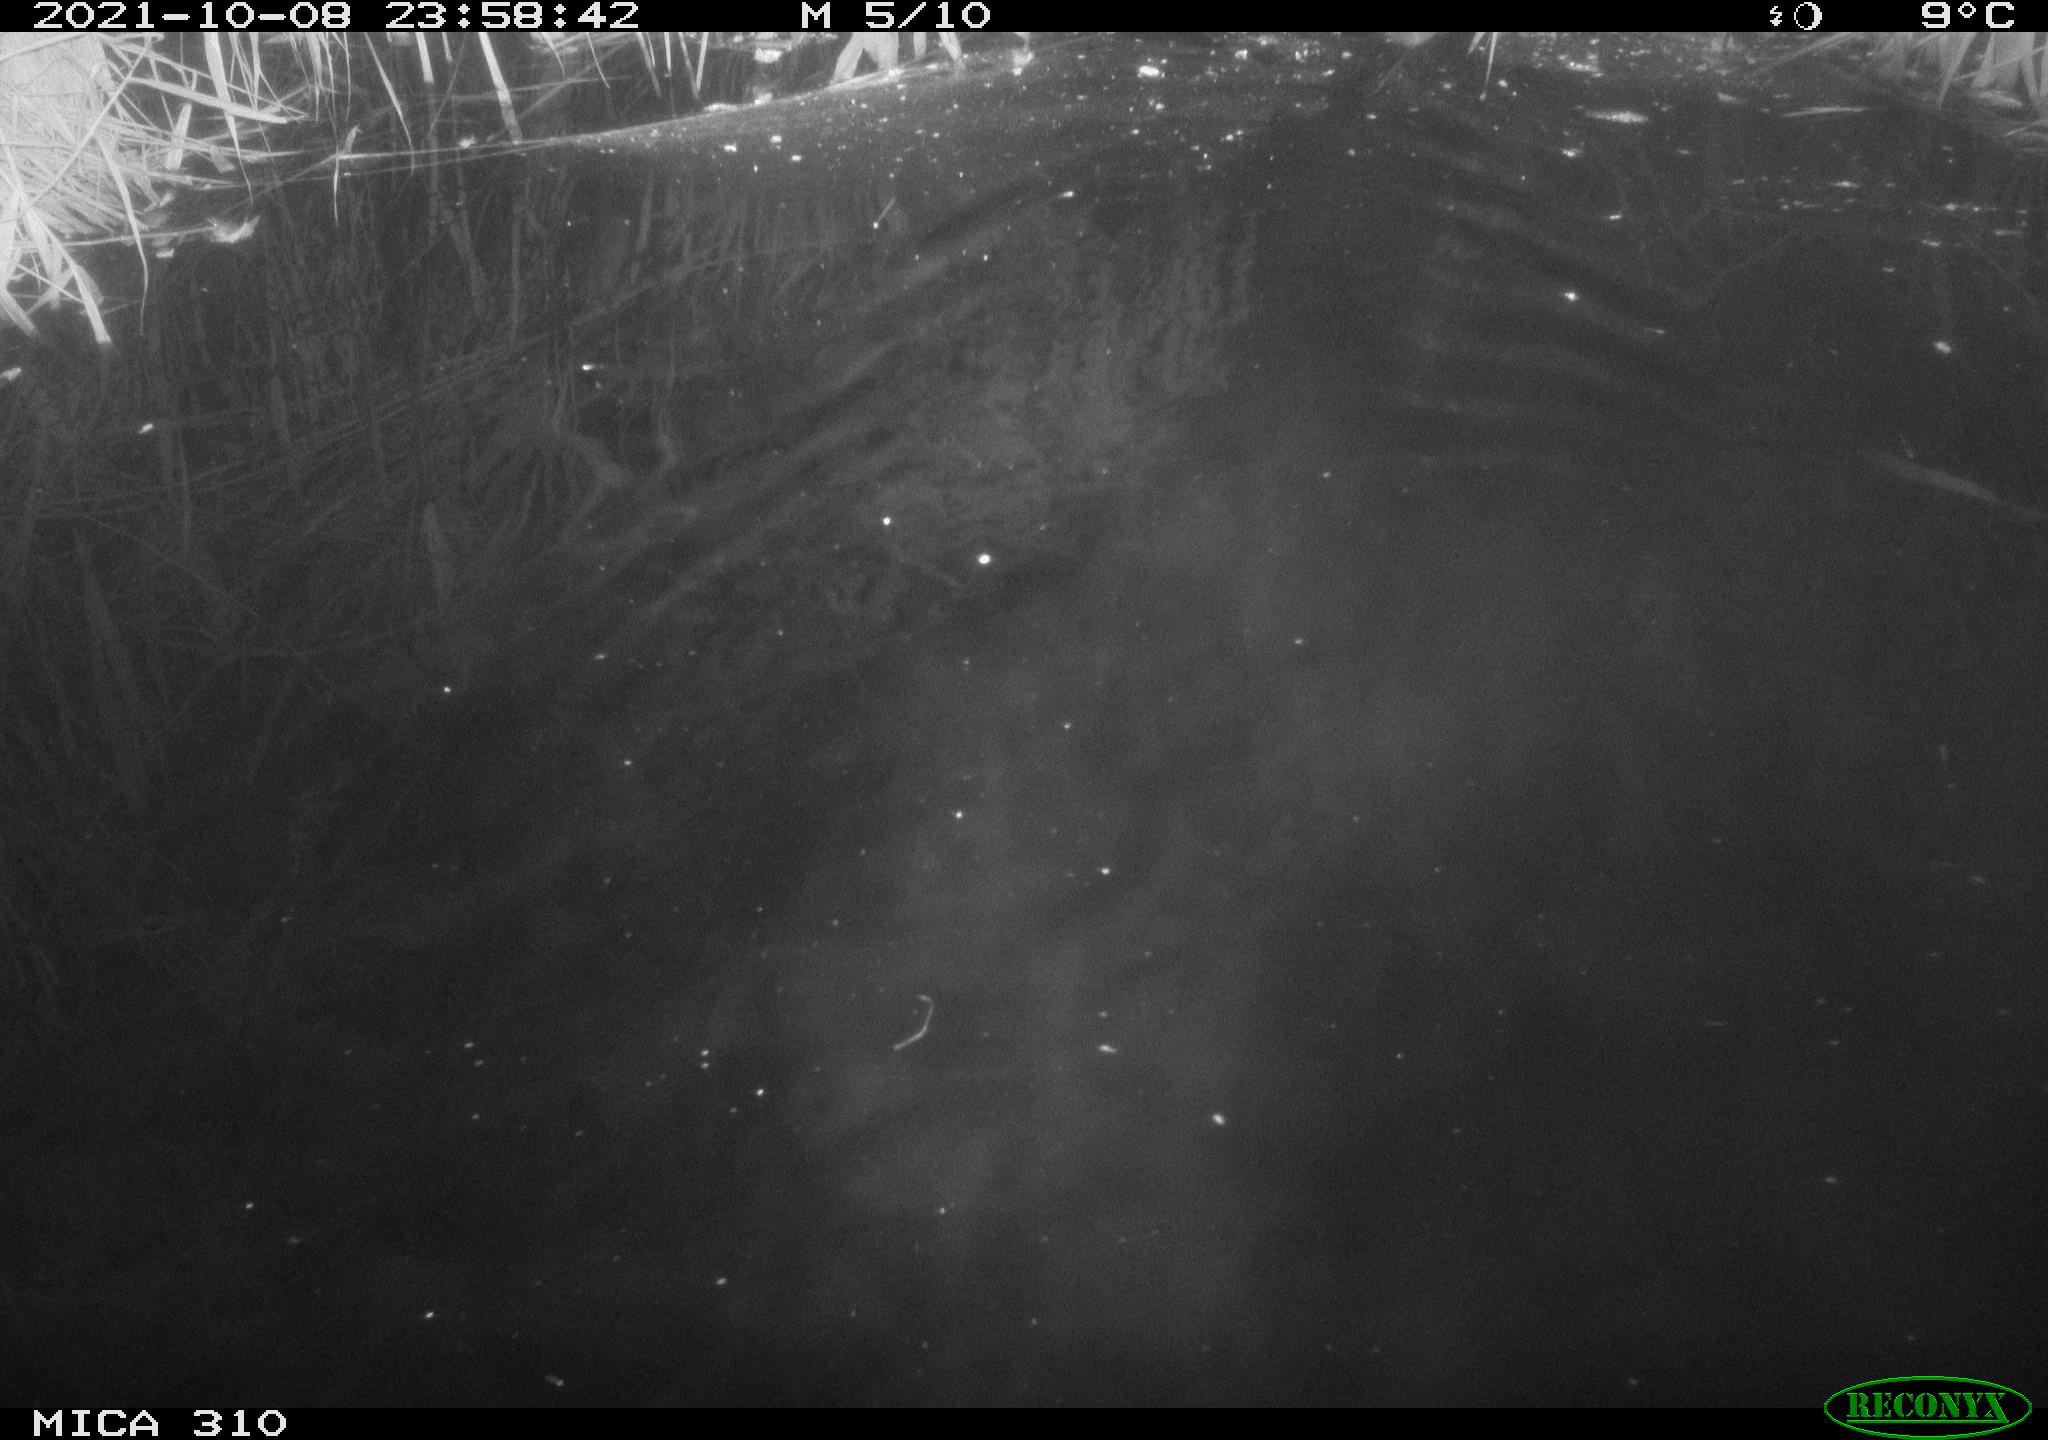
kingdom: Animalia
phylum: Chordata
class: Mammalia
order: Rodentia
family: Muridae
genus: Rattus
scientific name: Rattus norvegicus
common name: Brown rat
